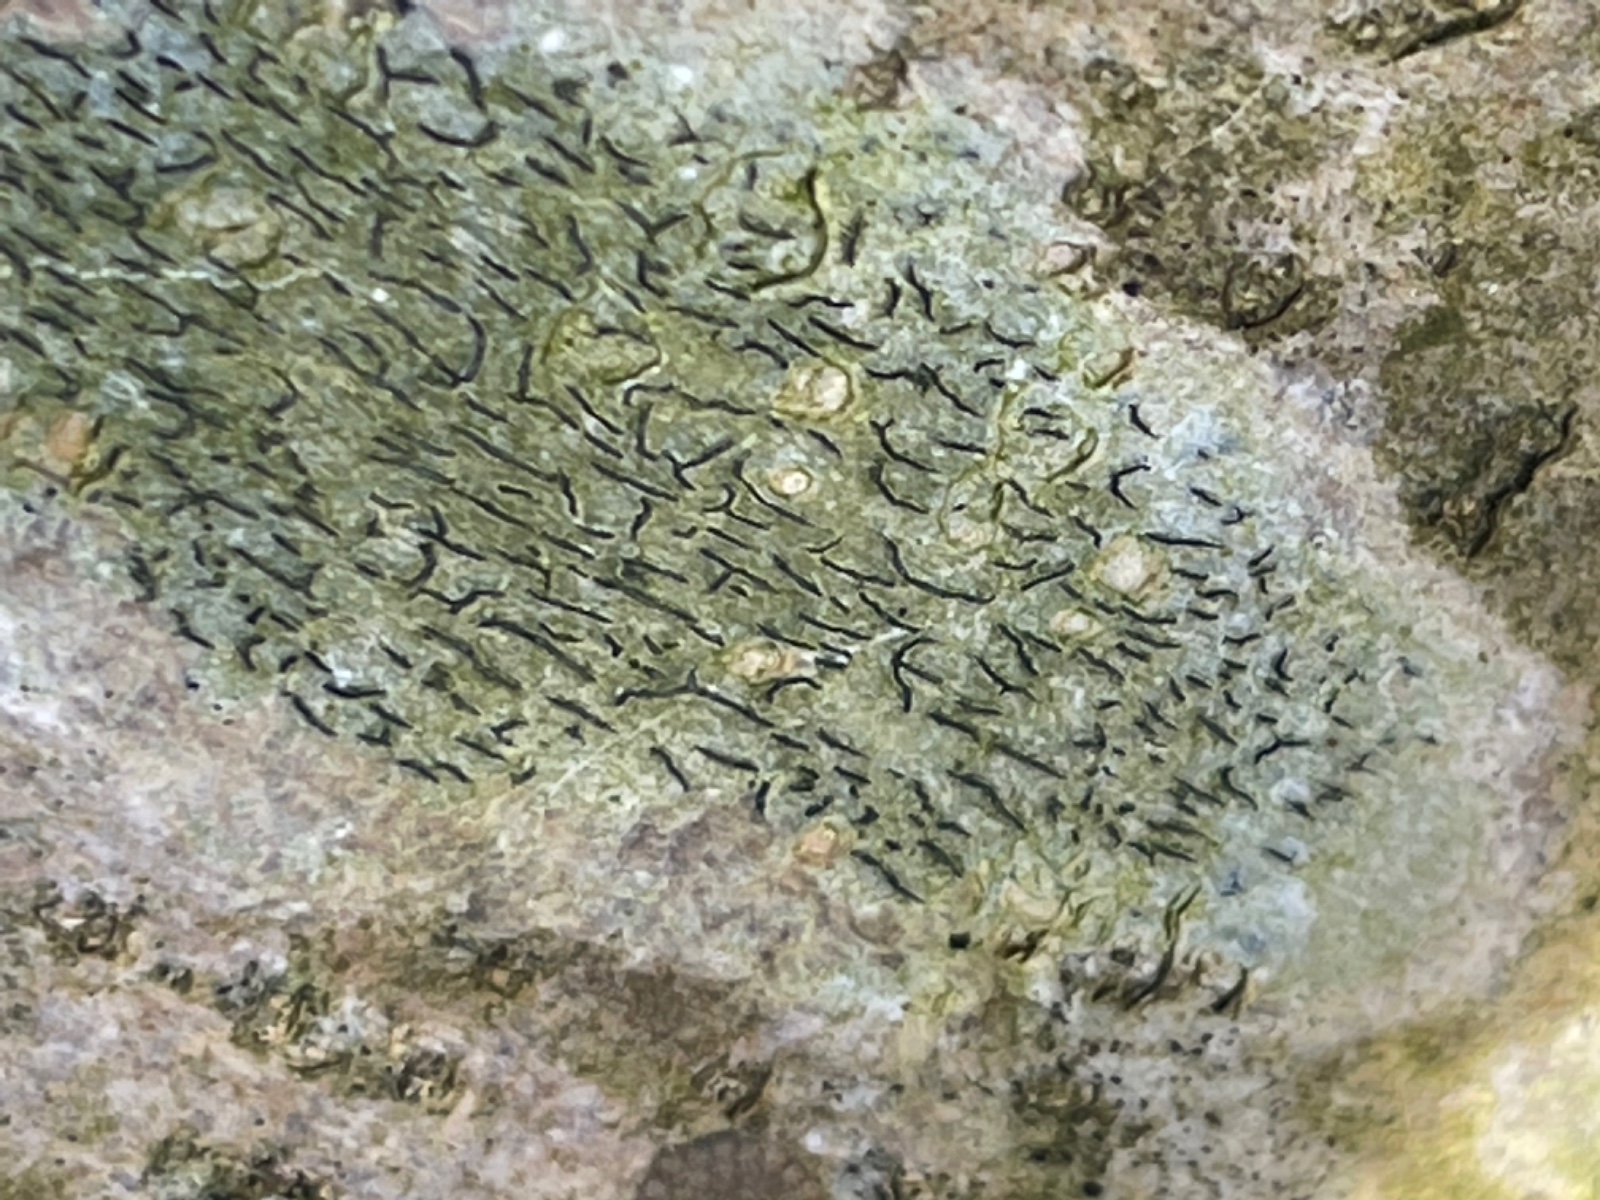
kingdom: Fungi
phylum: Ascomycota
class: Lecanoromycetes
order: Ostropales
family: Graphidaceae
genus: Graphis
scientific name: Graphis scripta
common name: almindelig skriftlav
